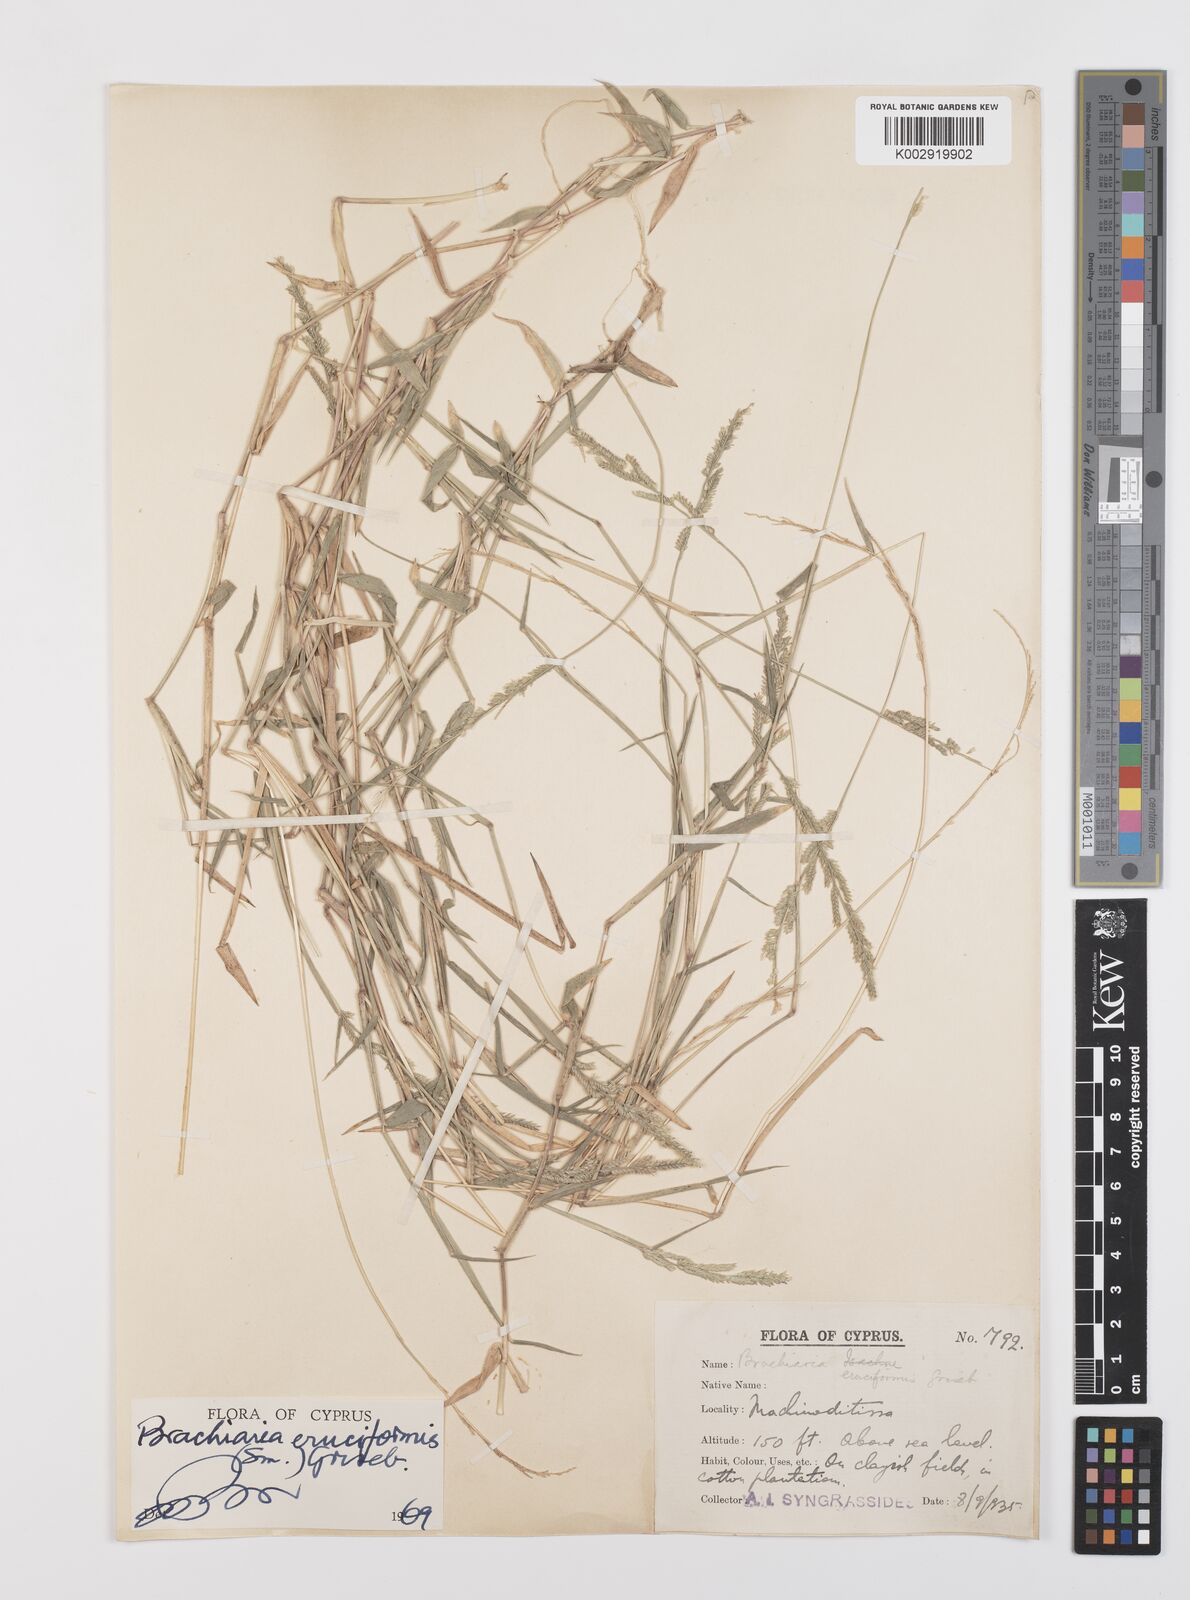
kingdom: Plantae
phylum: Tracheophyta
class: Liliopsida
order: Poales
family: Poaceae
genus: Moorochloa
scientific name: Moorochloa eruciformis
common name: Sweet signalgrass
